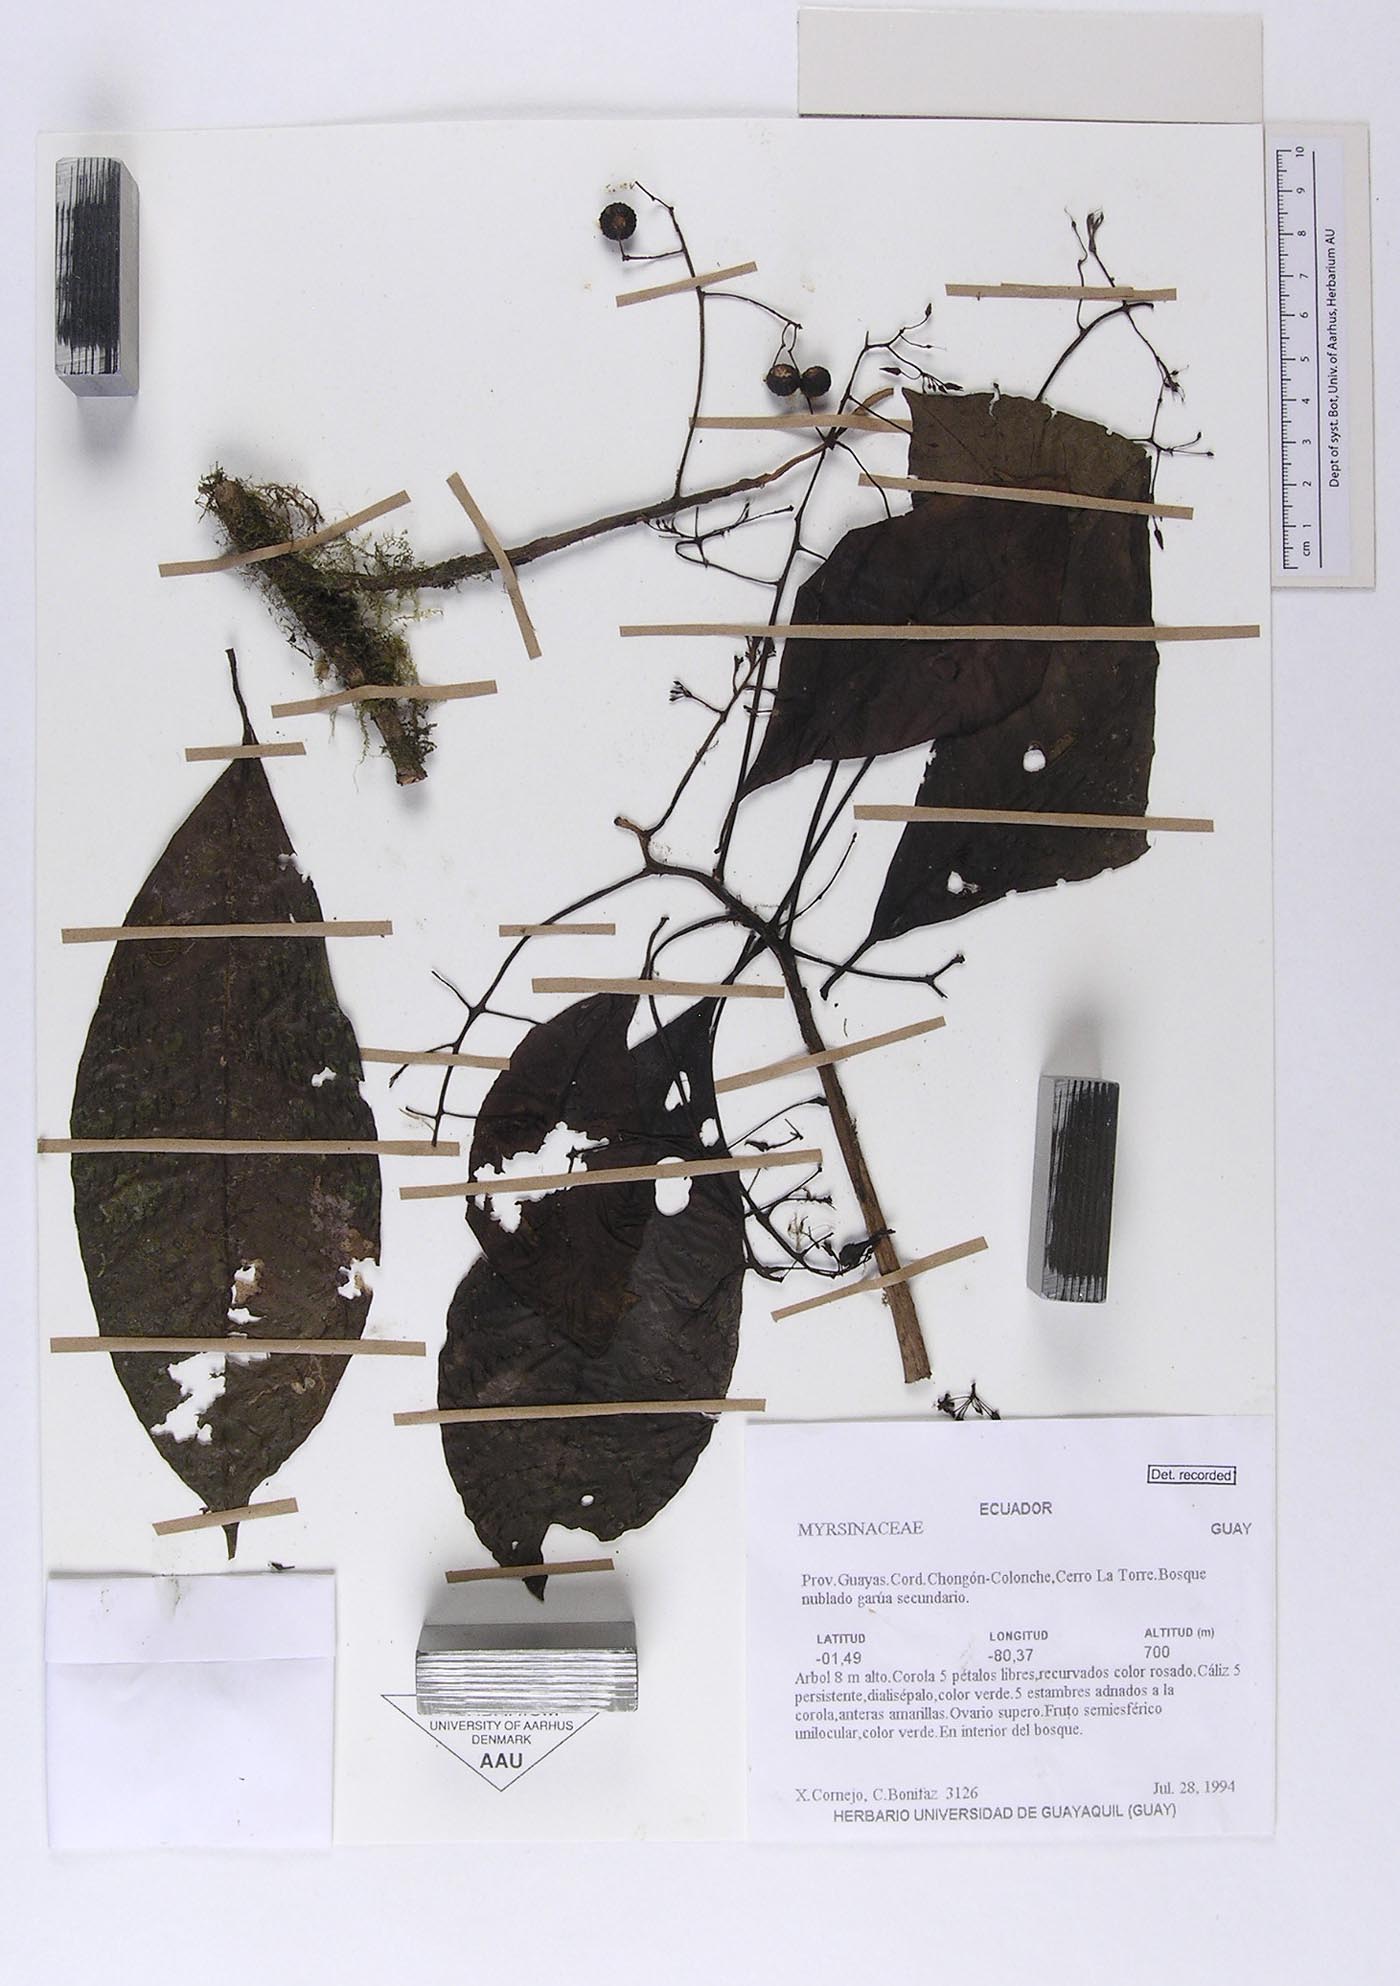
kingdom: Plantae
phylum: Tracheophyta
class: Magnoliopsida
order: Ericales
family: Primulaceae
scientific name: Primulaceae
